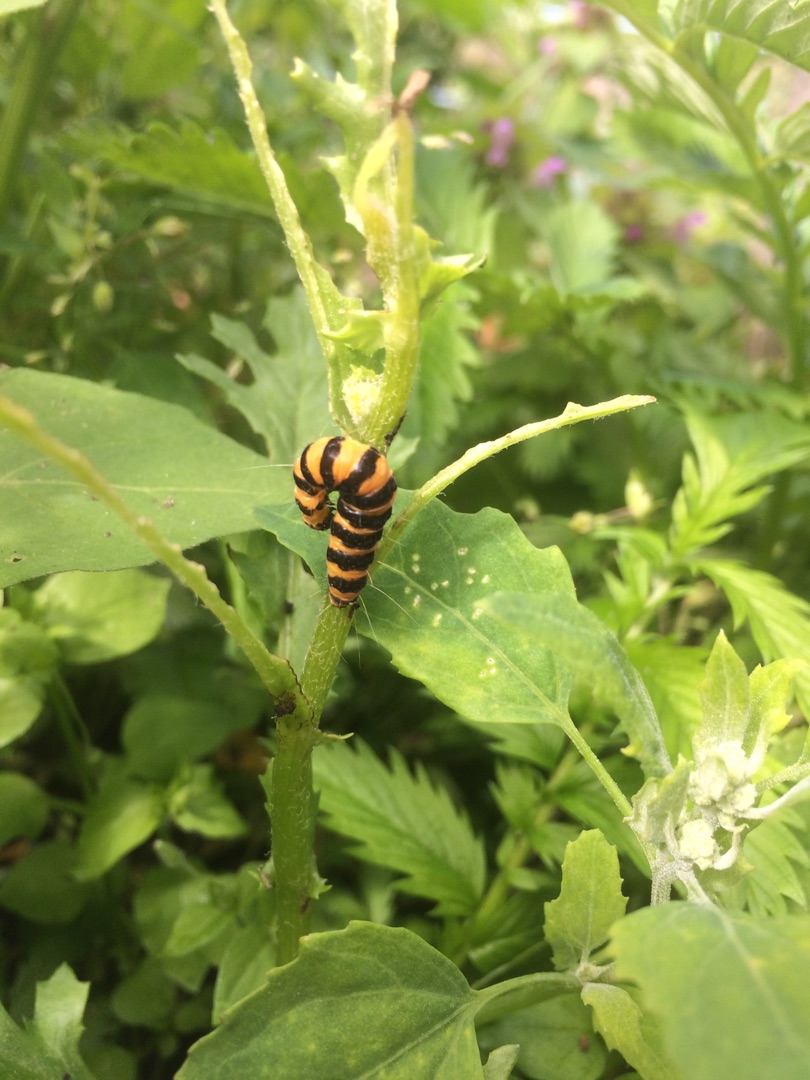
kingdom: Animalia
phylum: Arthropoda
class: Insecta
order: Lepidoptera
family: Erebidae
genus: Tyria
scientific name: Tyria jacobaeae
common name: Blodplet
